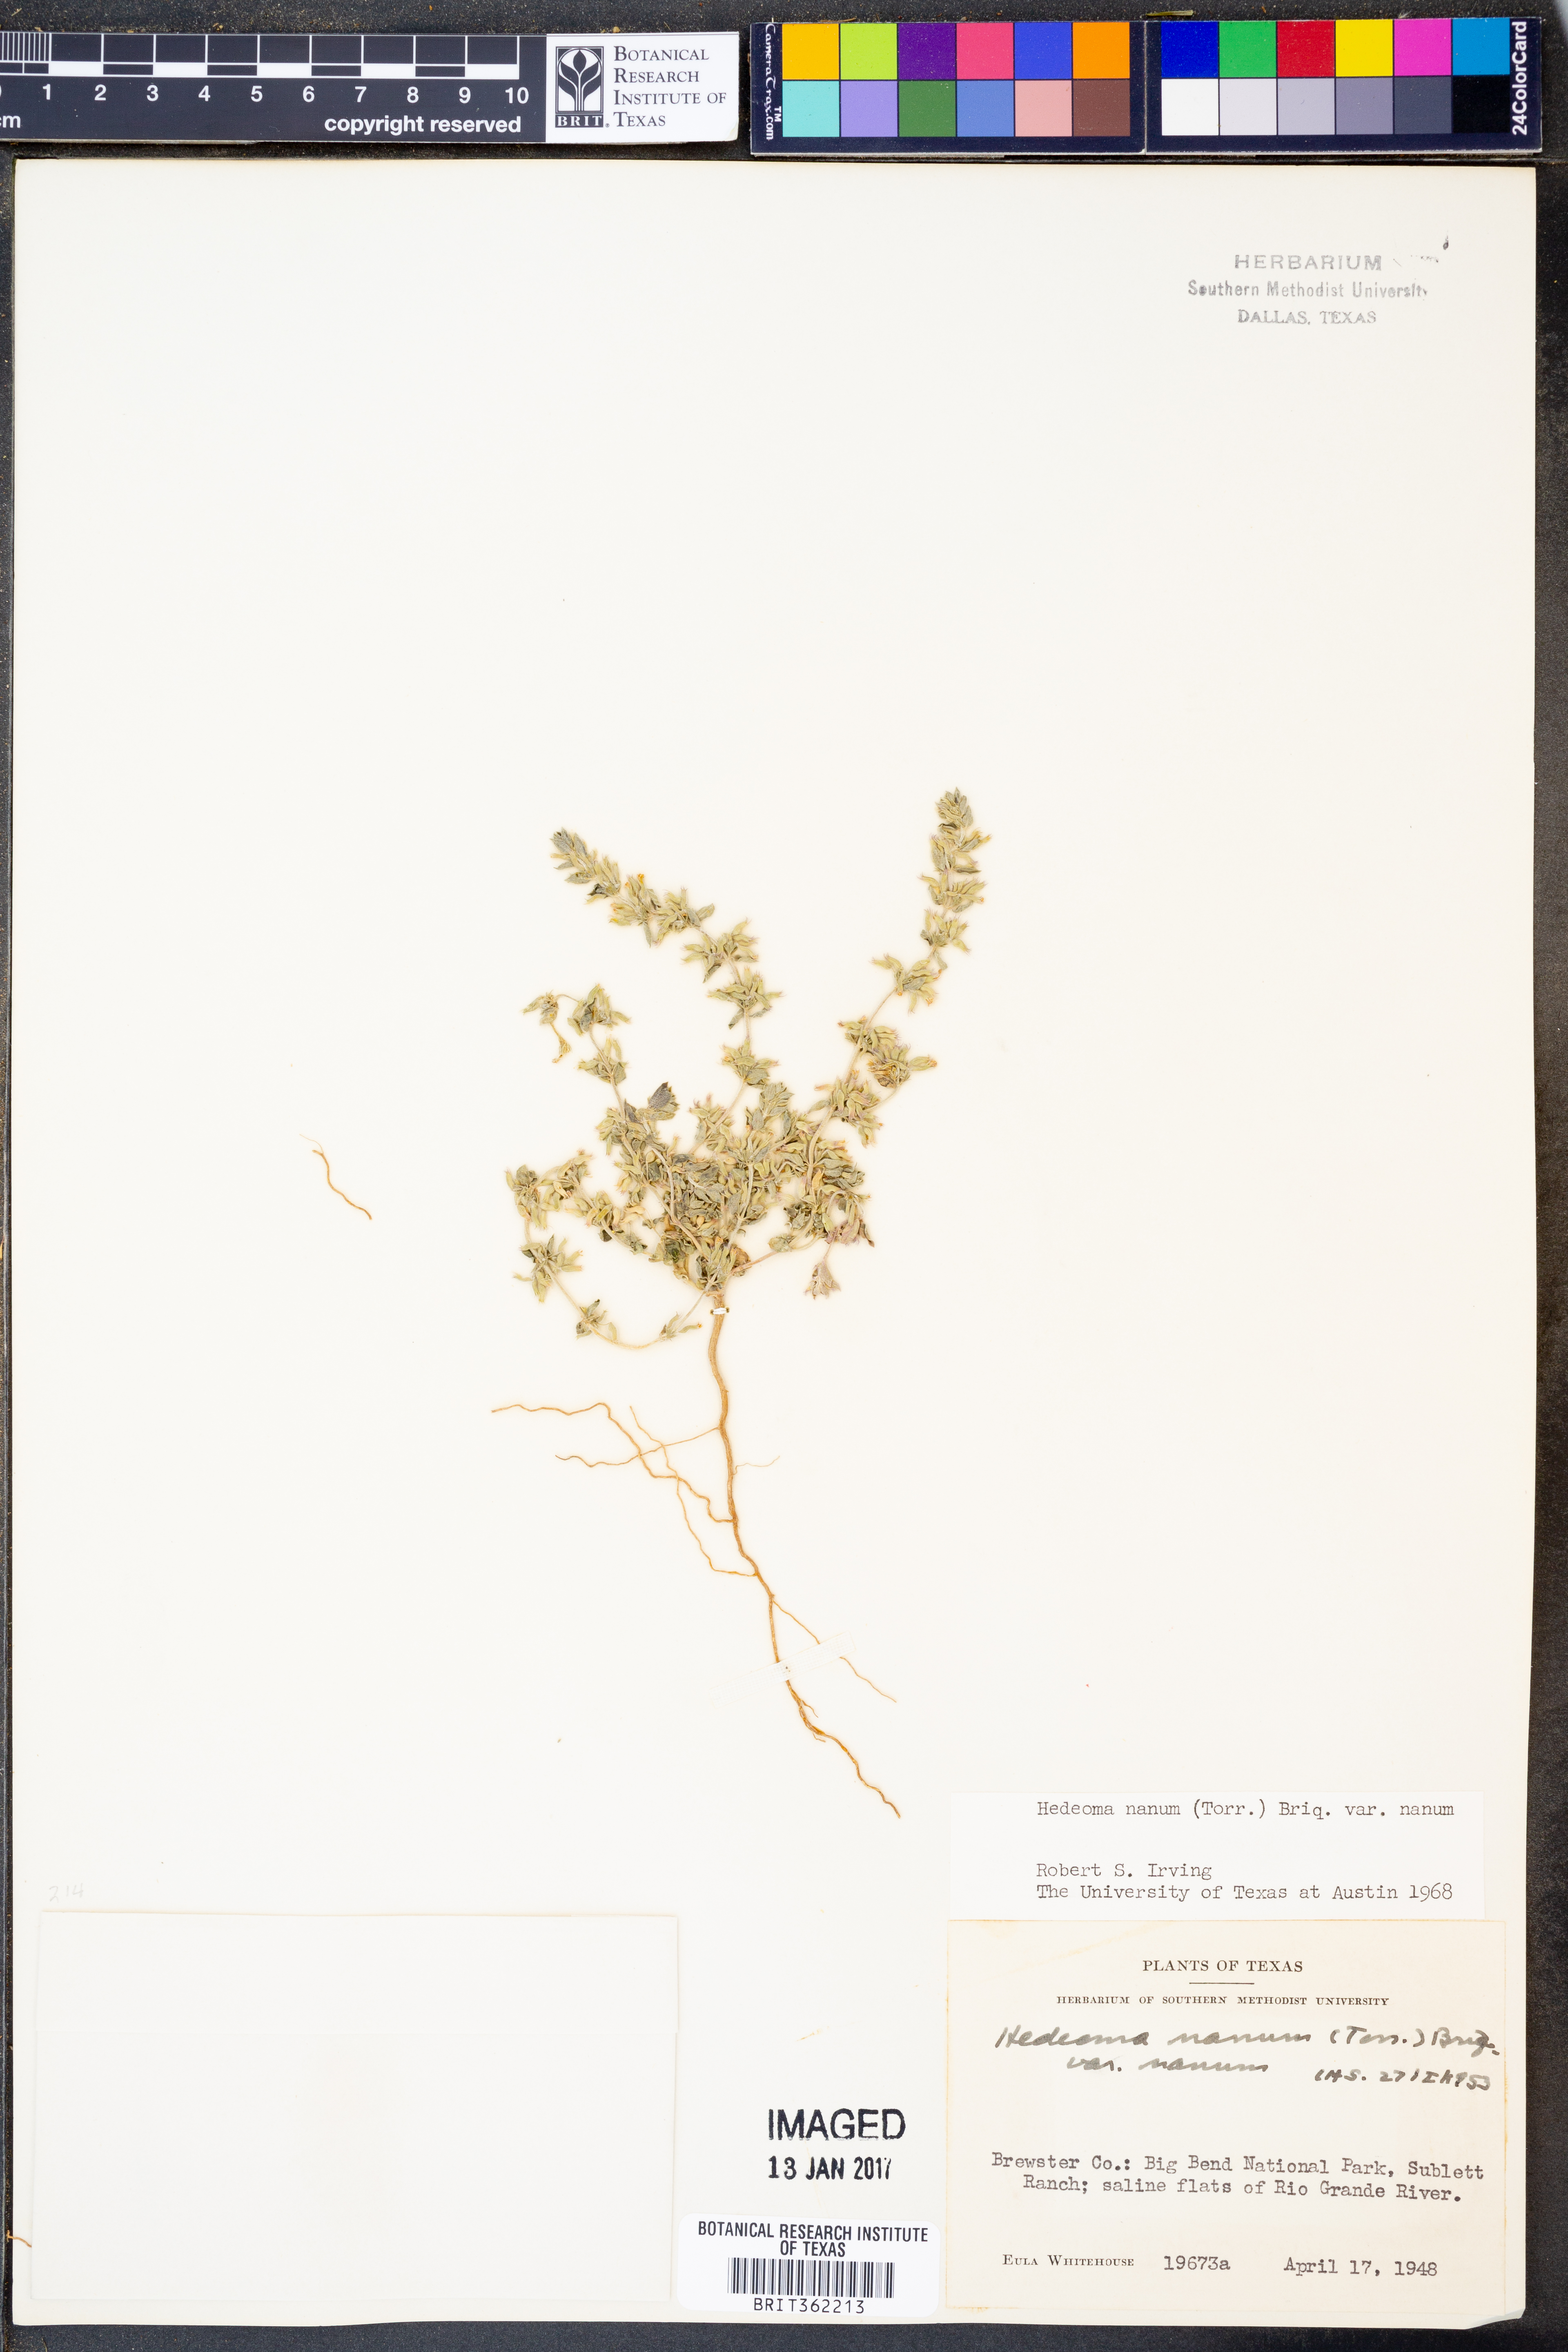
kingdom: Plantae
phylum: Tracheophyta
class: Magnoliopsida
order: Lamiales
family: Lamiaceae
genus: Hedeoma
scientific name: Hedeoma nana
